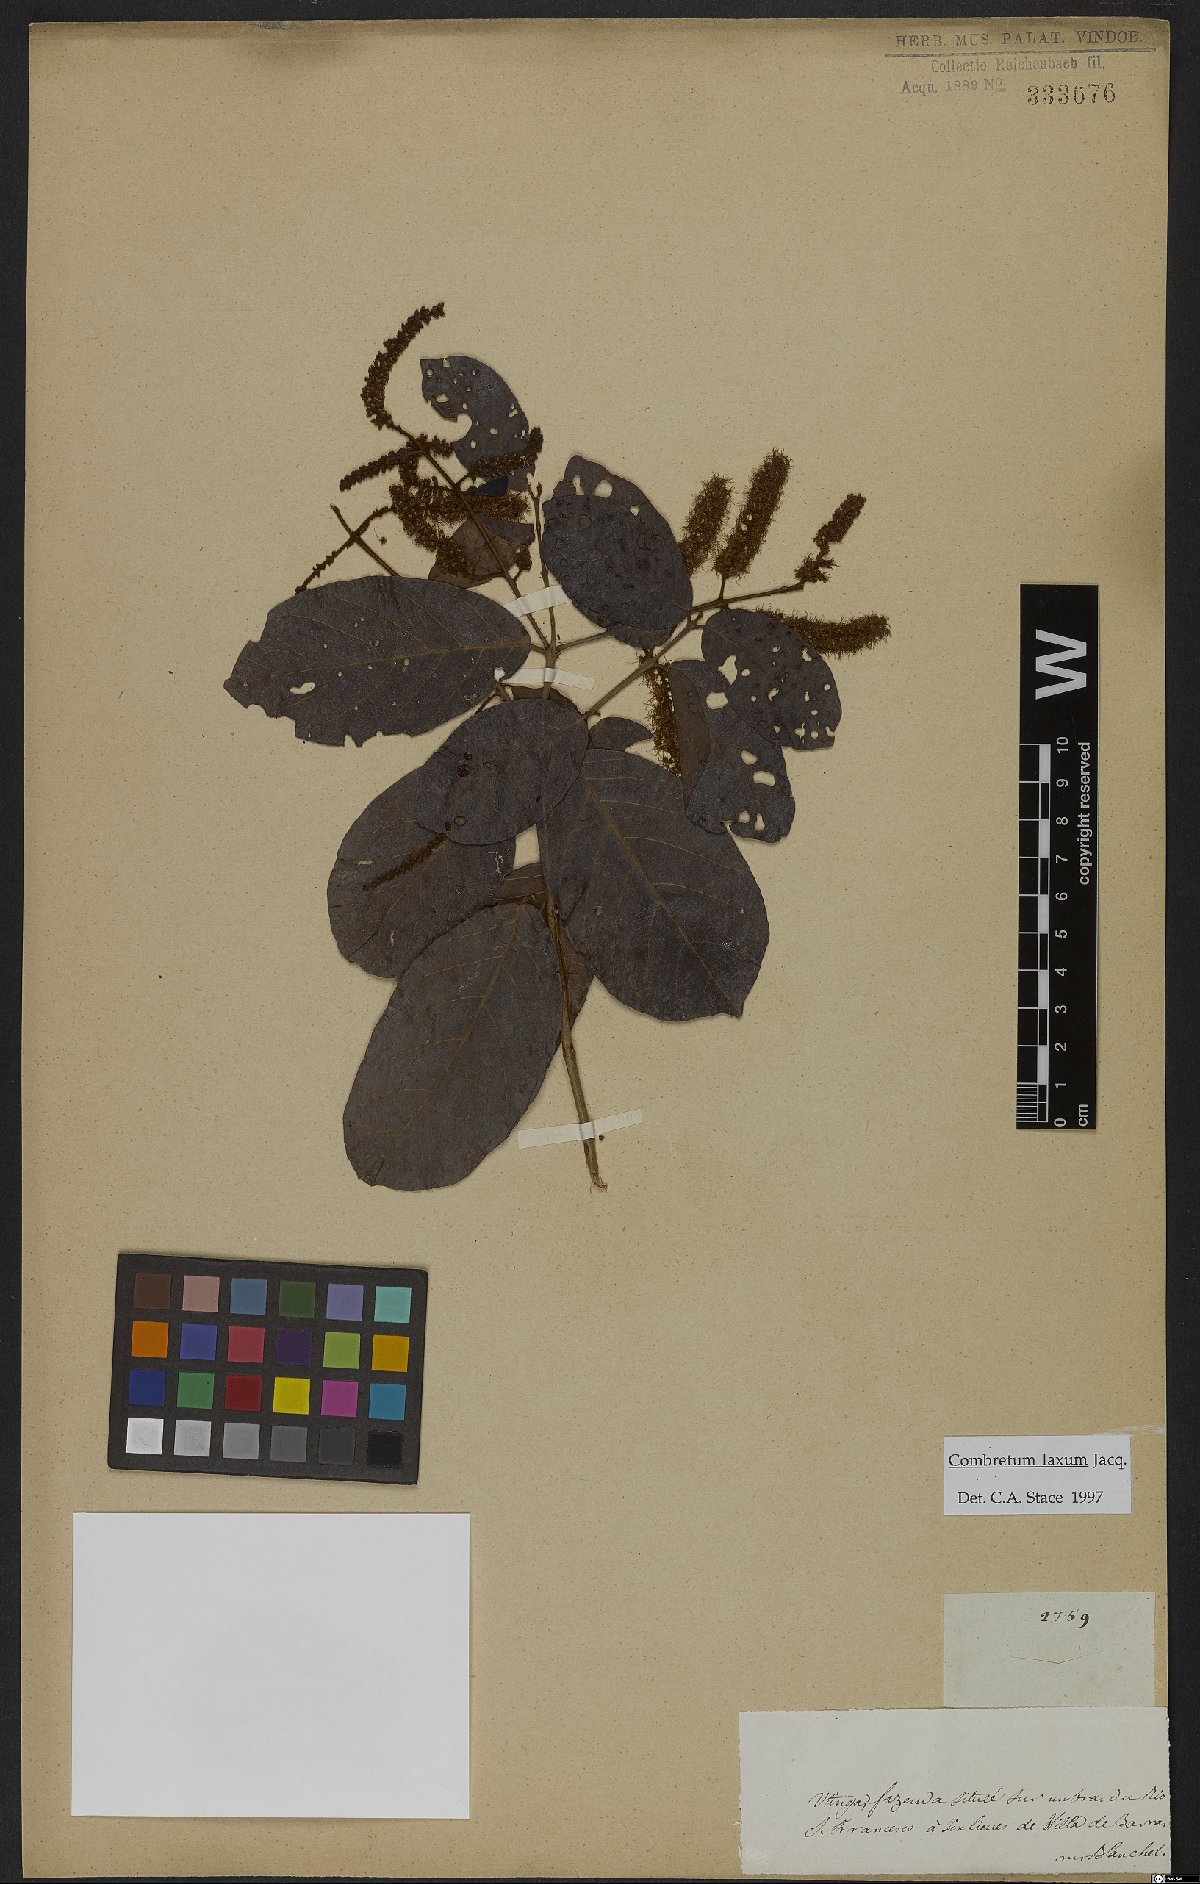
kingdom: Plantae
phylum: Tracheophyta
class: Magnoliopsida
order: Myrtales
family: Combretaceae
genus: Combretum
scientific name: Combretum laxum
